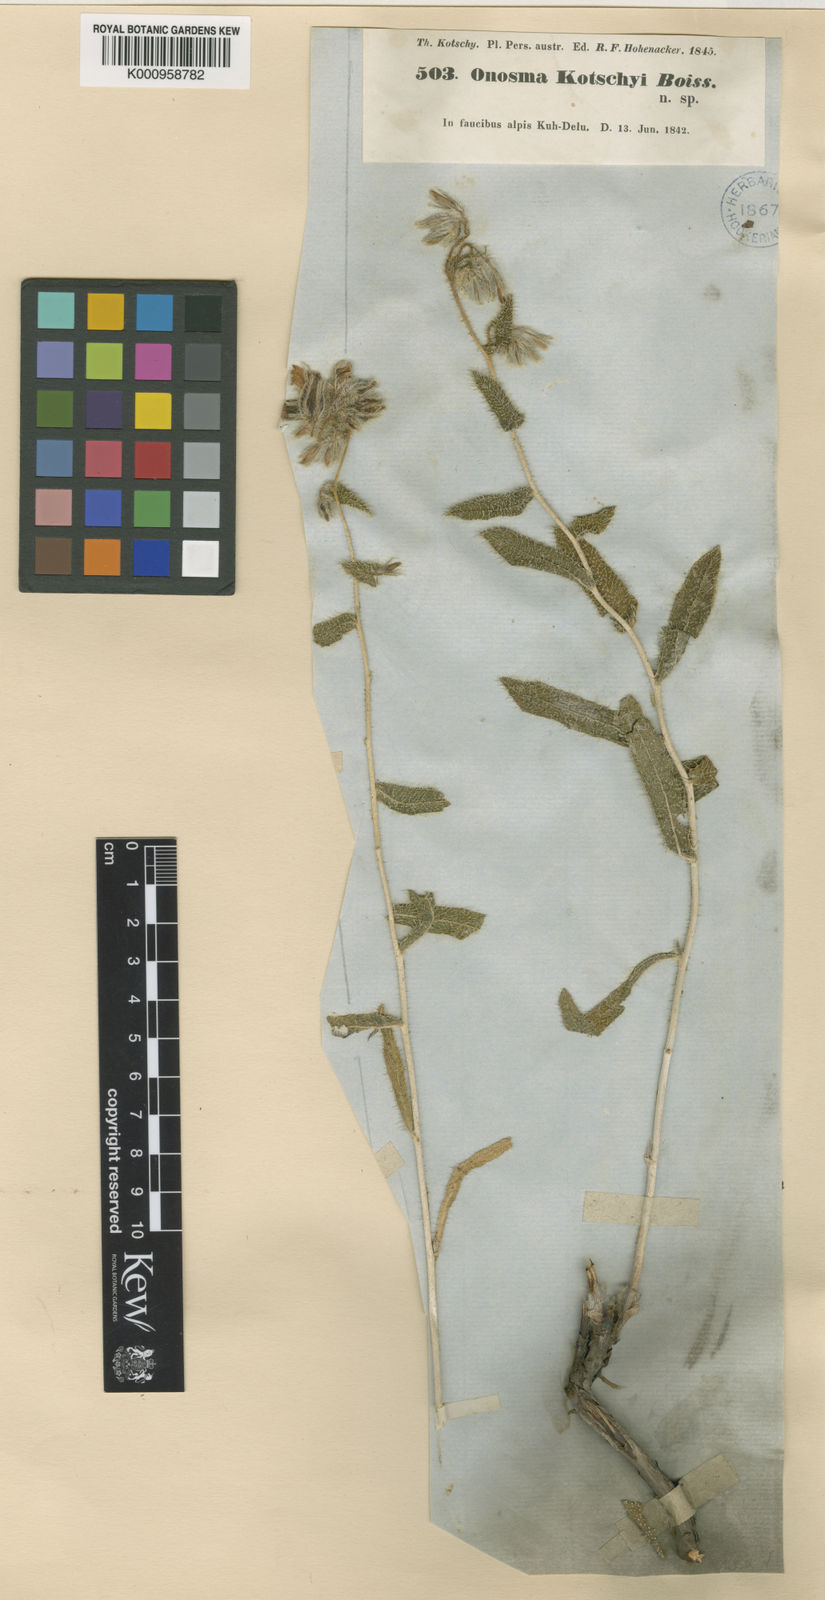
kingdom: Plantae
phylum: Tracheophyta
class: Magnoliopsida
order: Boraginales
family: Boraginaceae
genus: Onosma
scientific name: Onosma kotschyi
